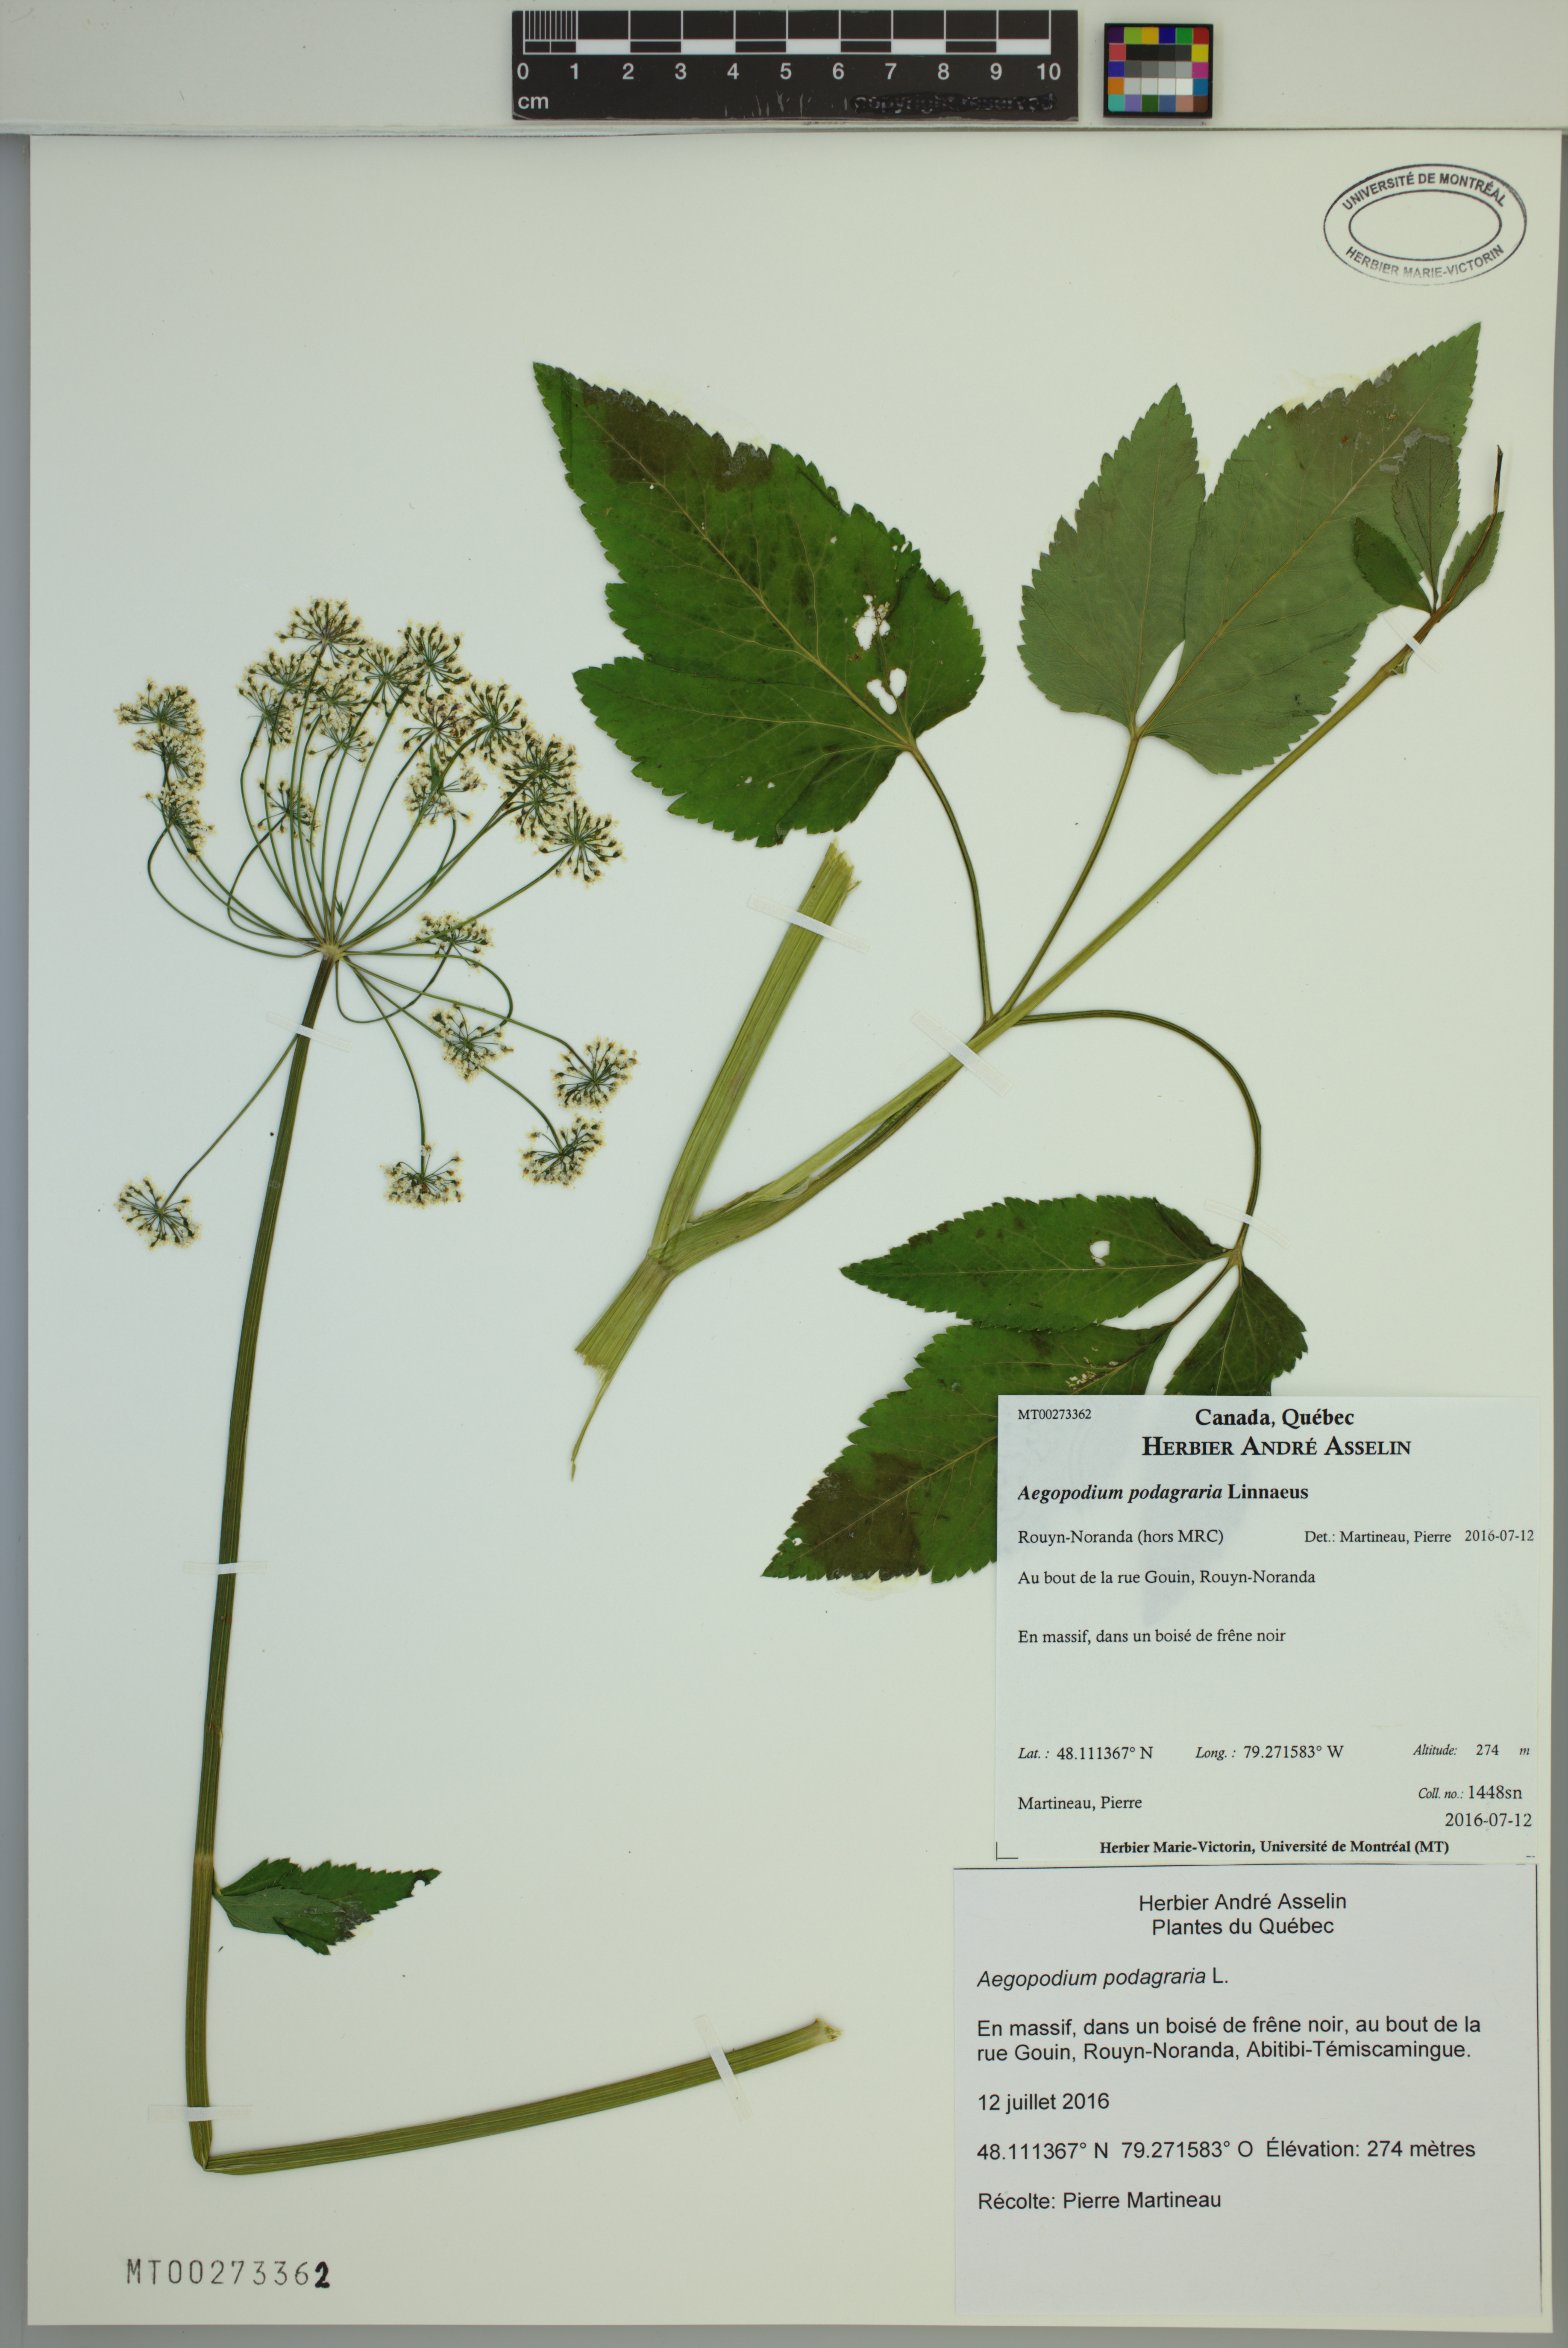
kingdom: Plantae
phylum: Tracheophyta
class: Magnoliopsida
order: Apiales
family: Apiaceae
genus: Aegopodium
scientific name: Aegopodium podagraria
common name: Ground-elder
